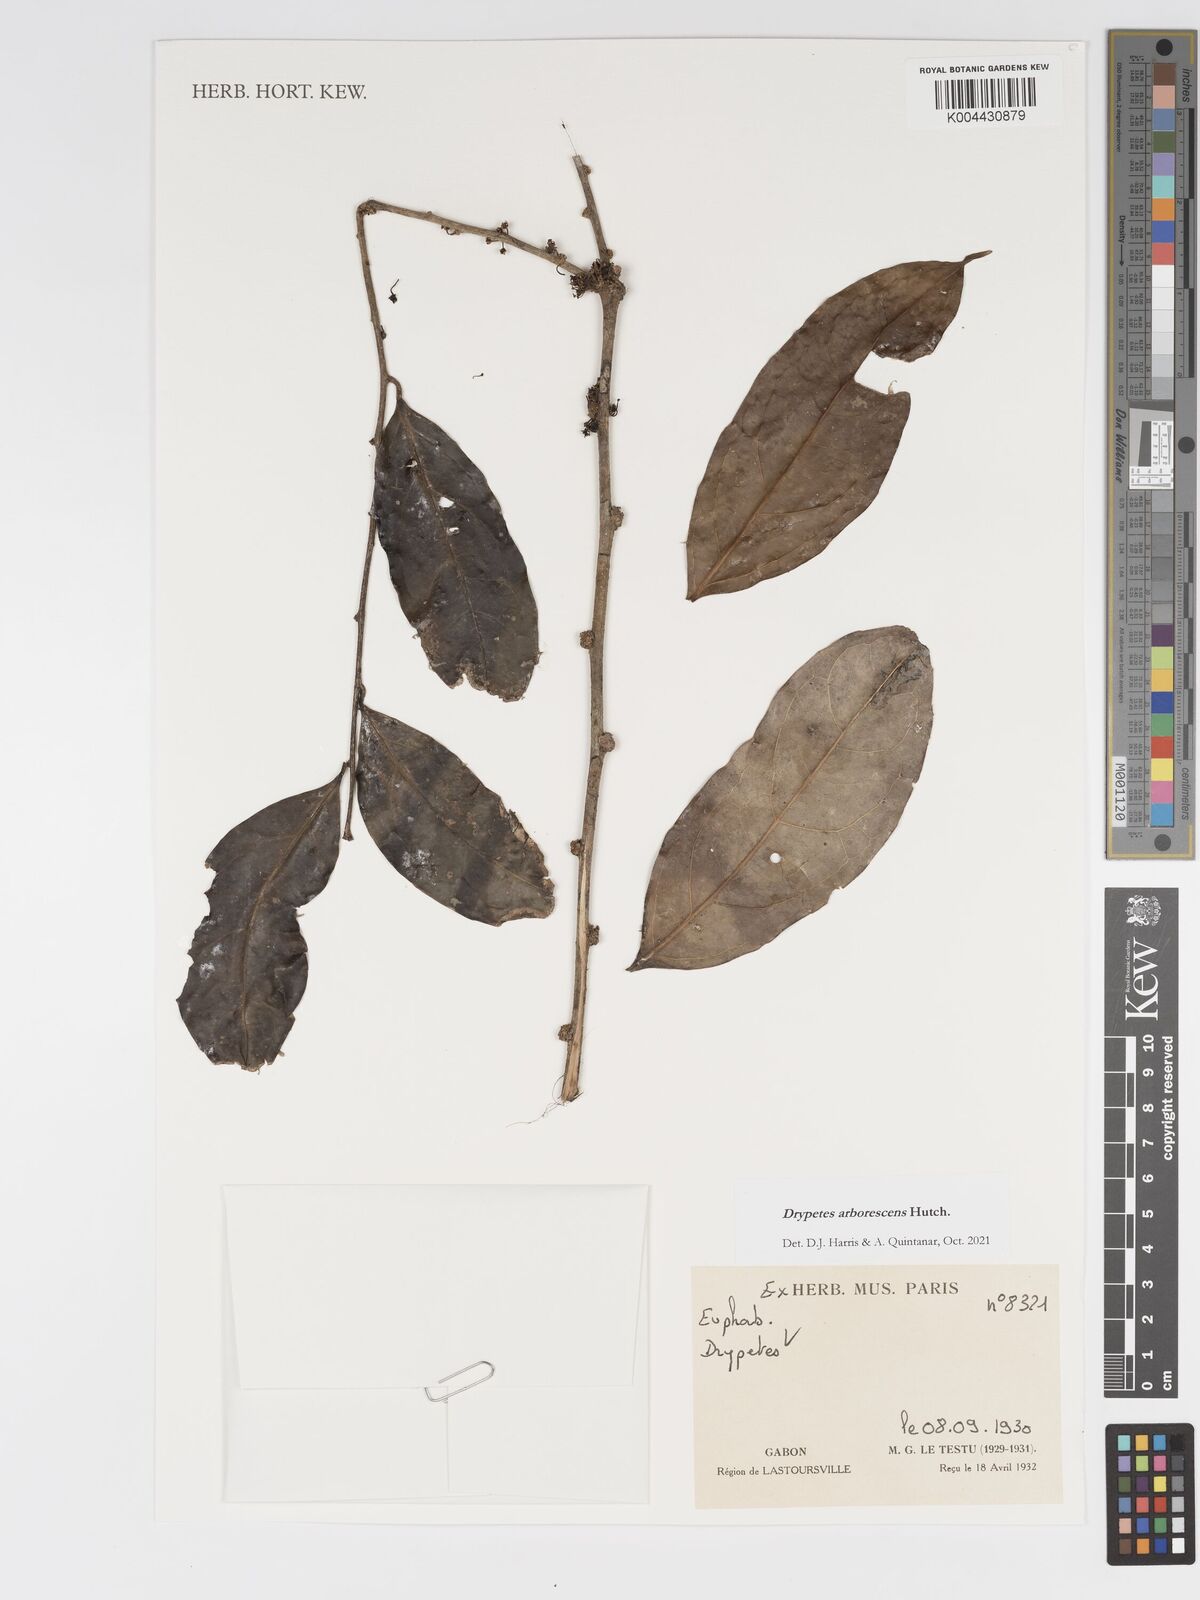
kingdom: Plantae
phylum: Tracheophyta
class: Magnoliopsida
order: Malpighiales
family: Putranjivaceae
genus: Drypetes
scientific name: Drypetes arborescens
